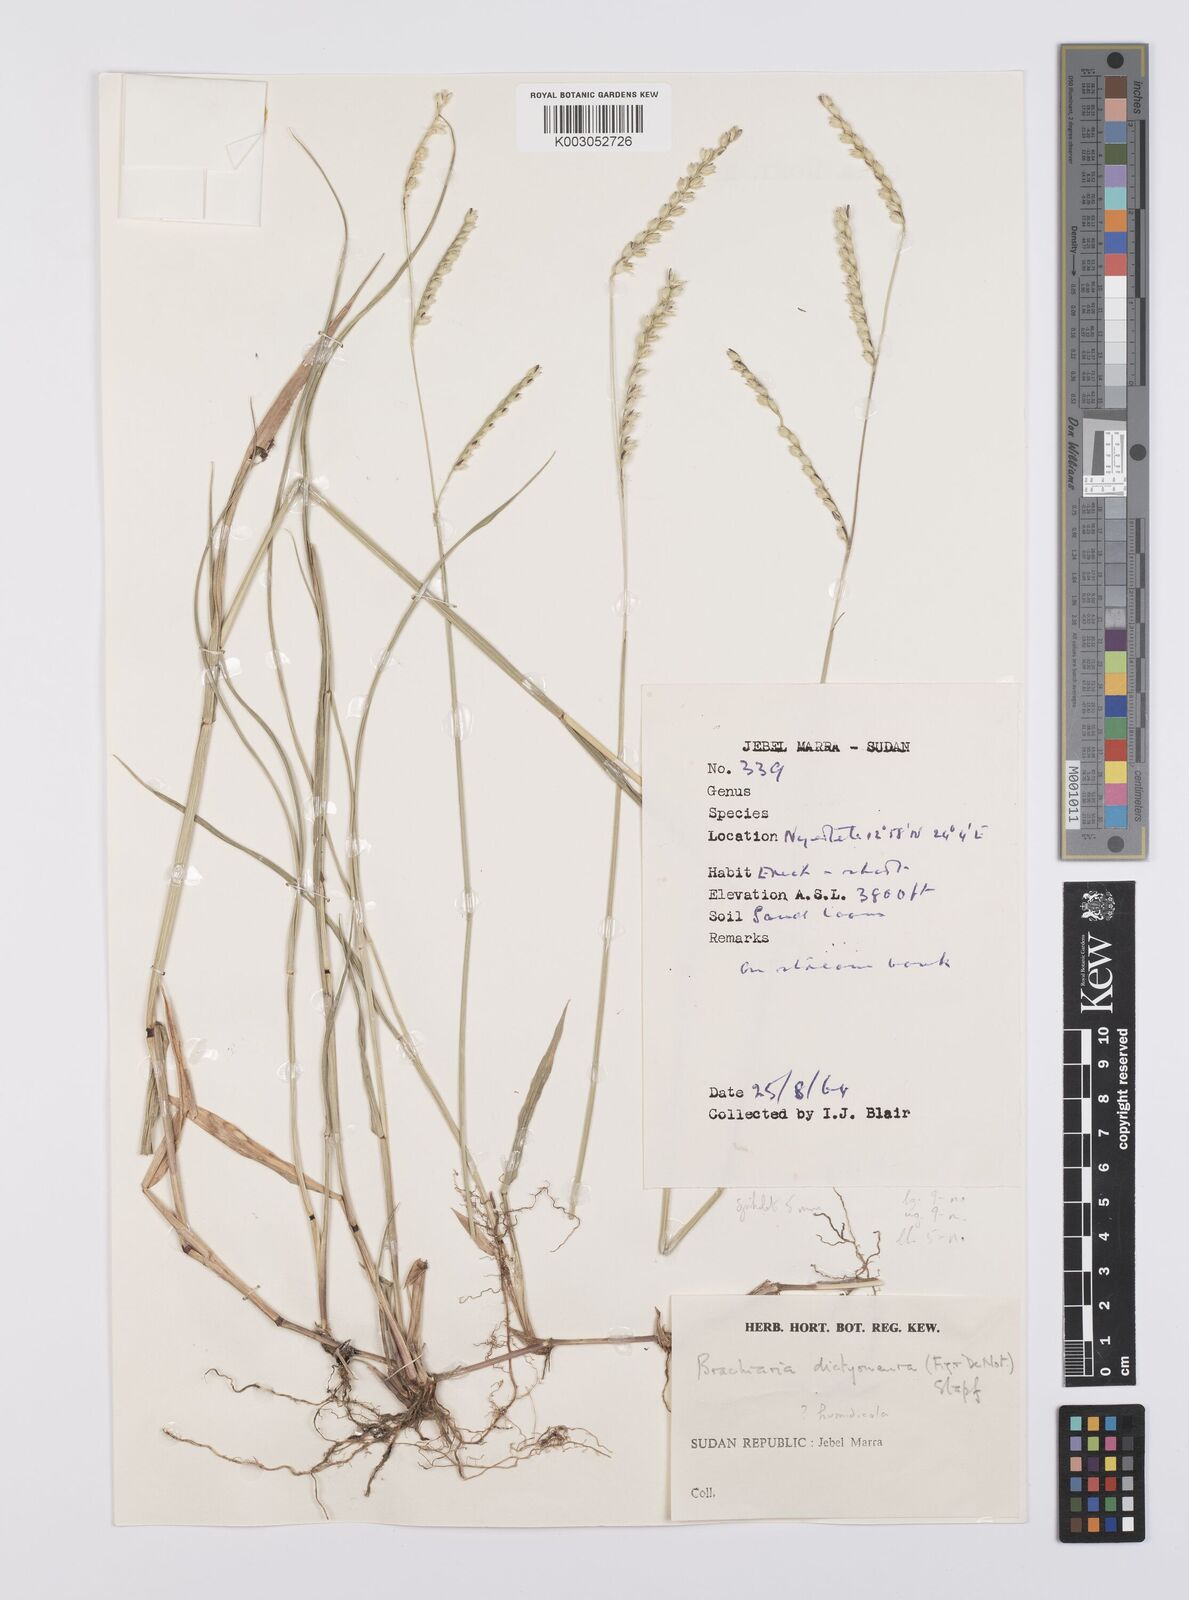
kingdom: Plantae
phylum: Tracheophyta
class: Liliopsida
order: Poales
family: Poaceae
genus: Urochloa
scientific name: Urochloa dictyoneura
